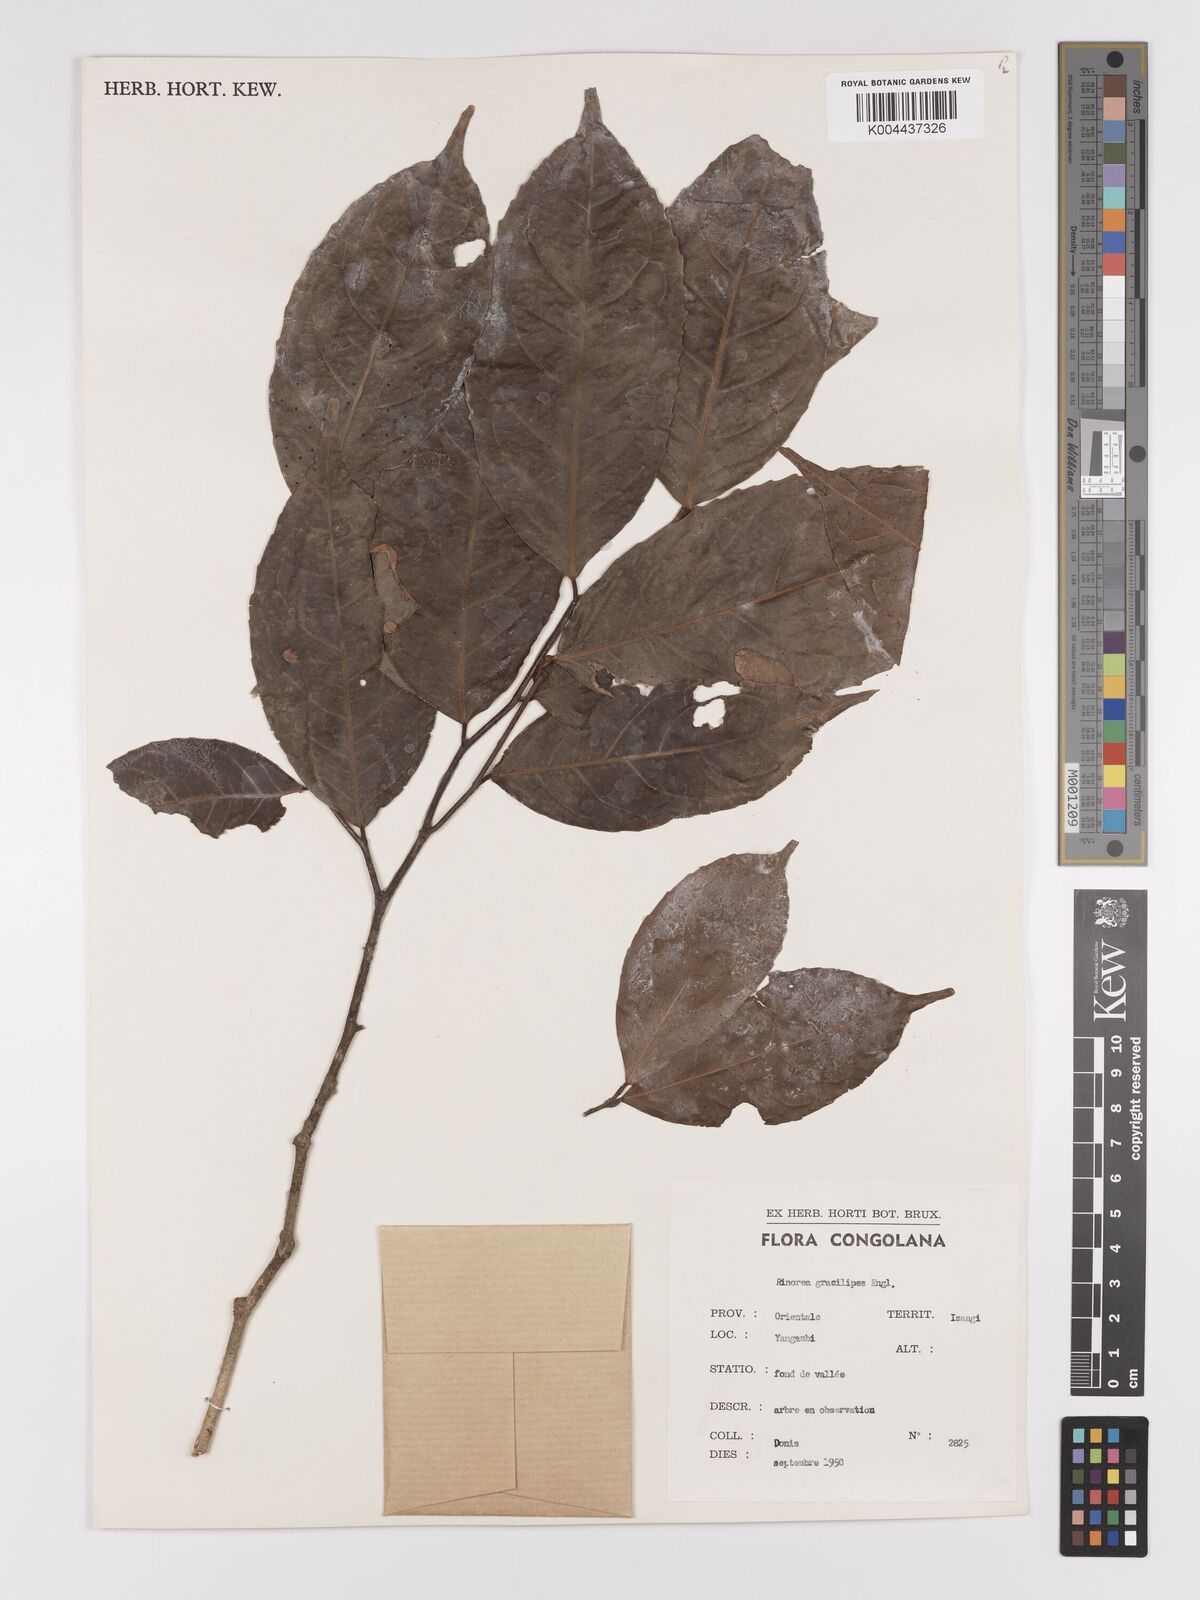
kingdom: Plantae
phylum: Tracheophyta
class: Magnoliopsida
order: Malpighiales
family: Violaceae
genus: Rinorea
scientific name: Rinorea angustifolia
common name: White violet-bush
